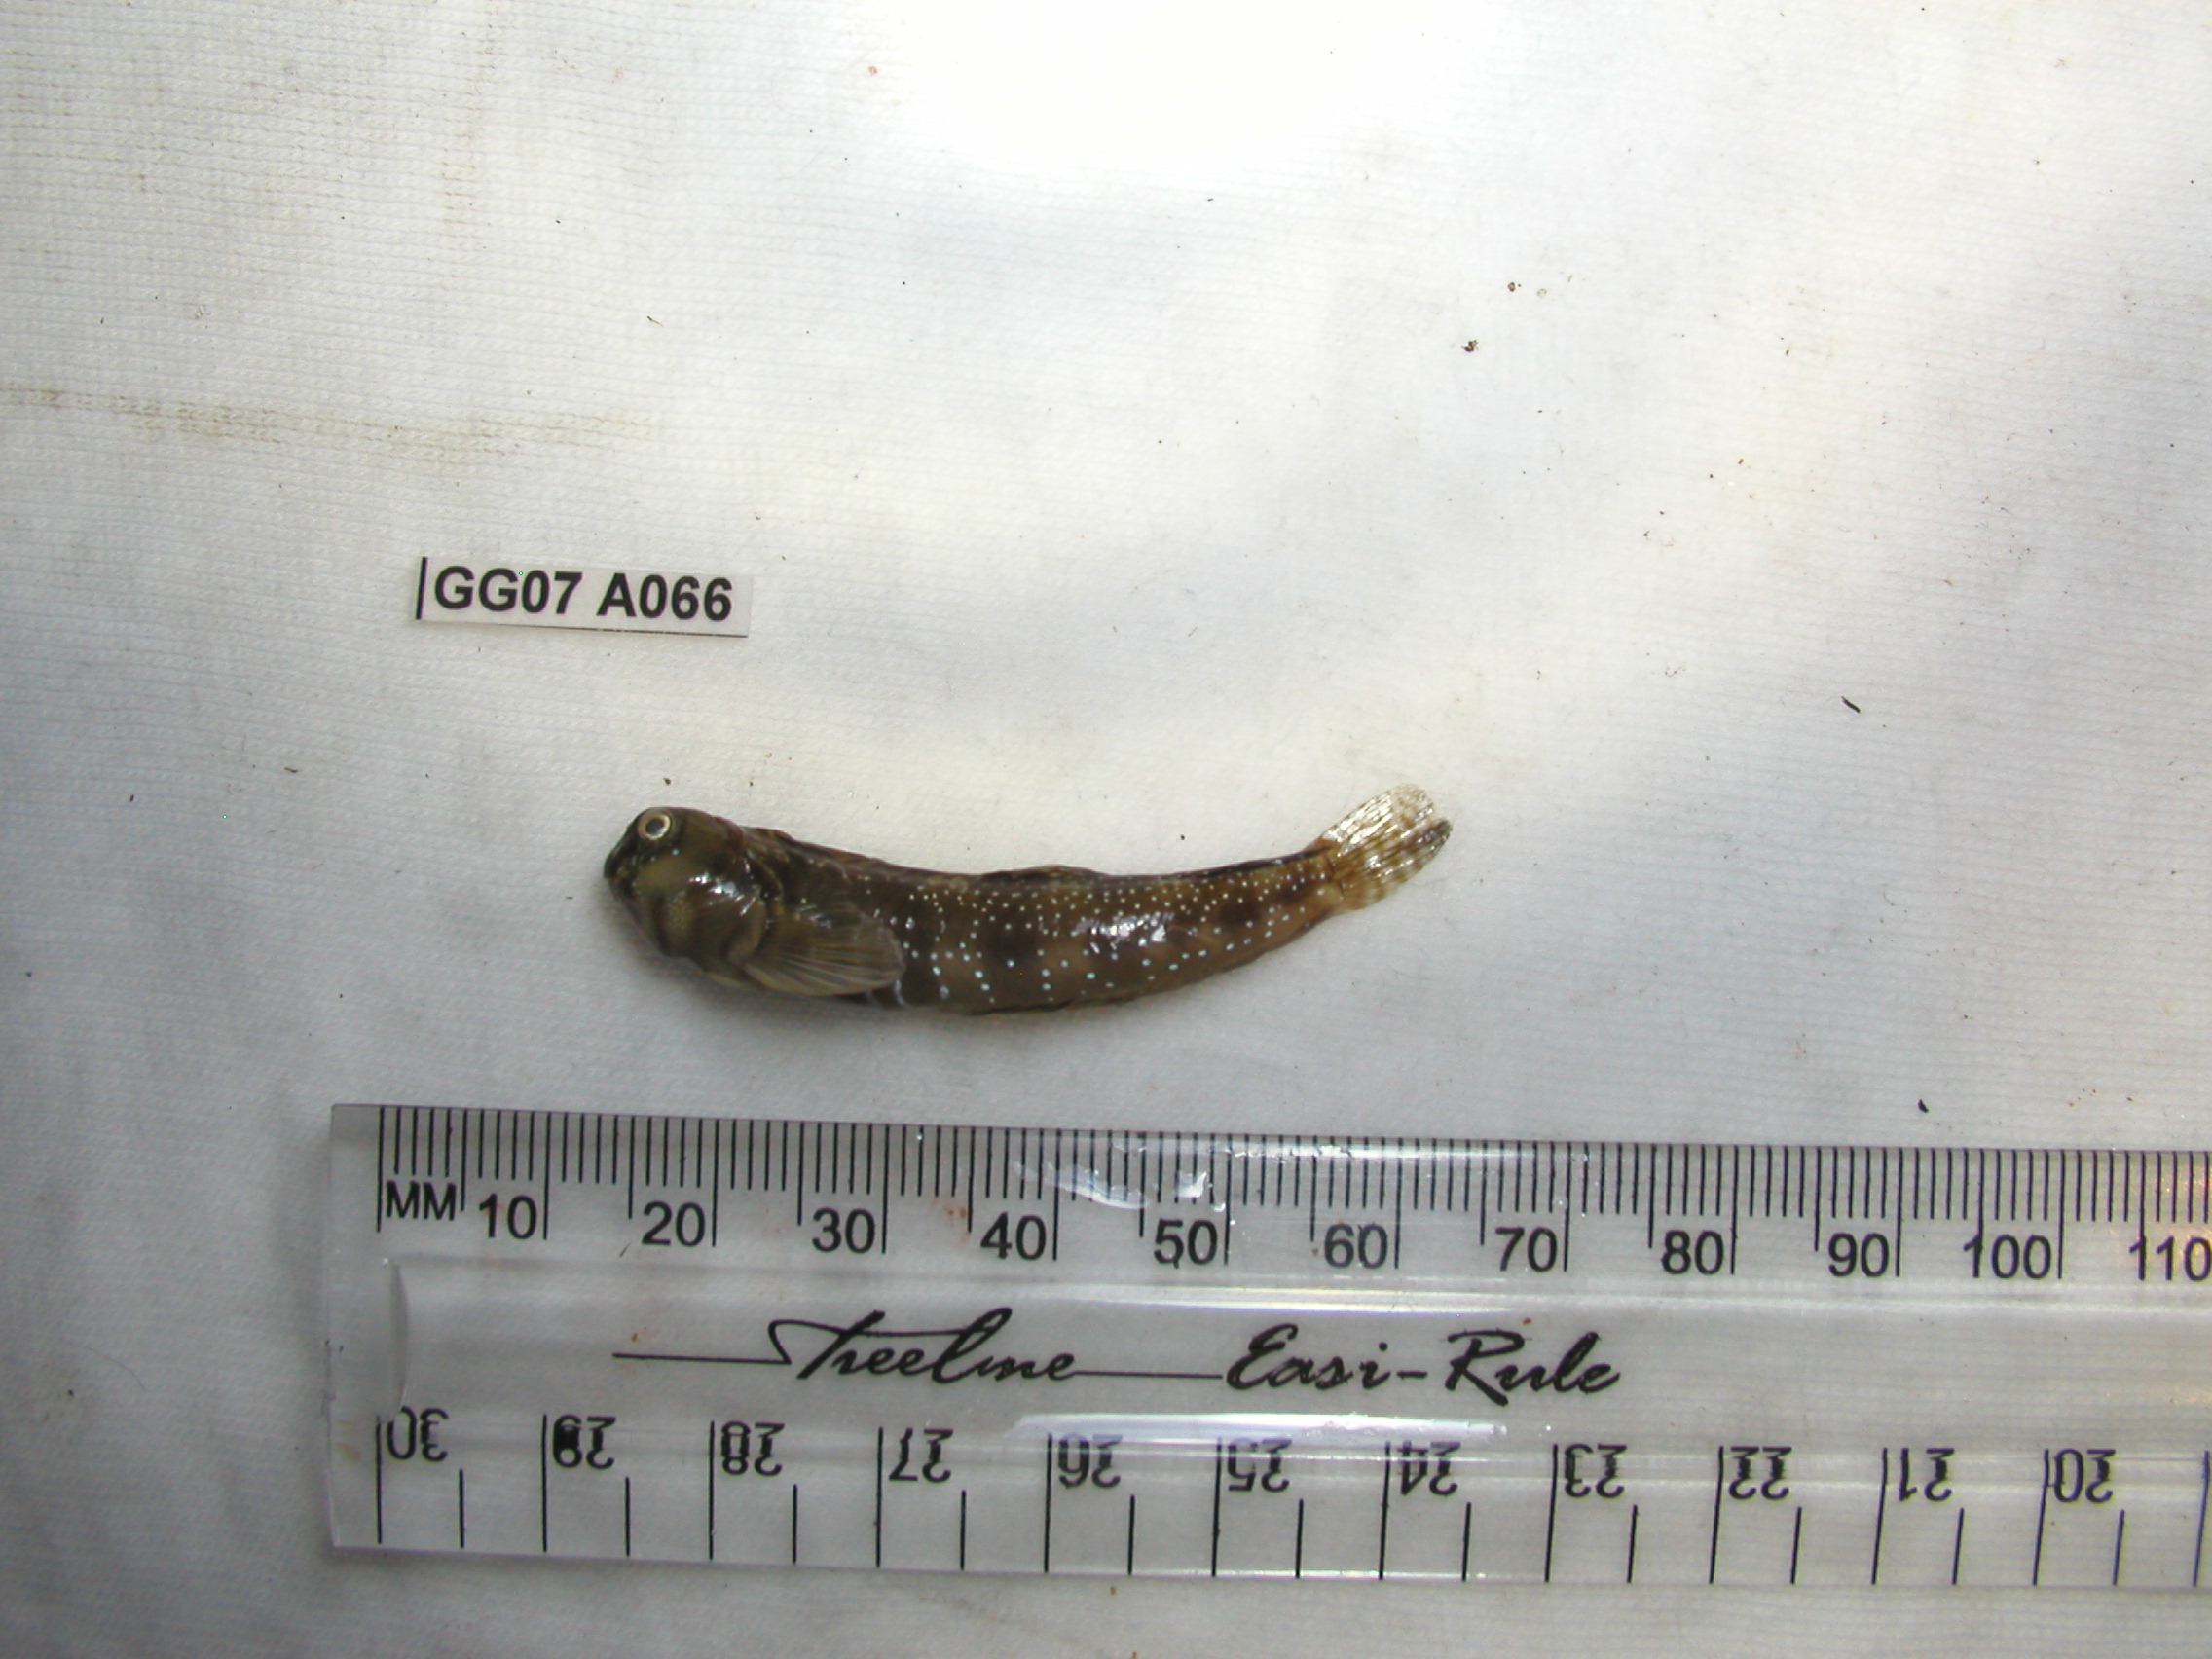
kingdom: Animalia
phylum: Chordata
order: Perciformes
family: Blenniidae
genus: Antennablennius
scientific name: Antennablennius bifilum
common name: Horned rockskipper
